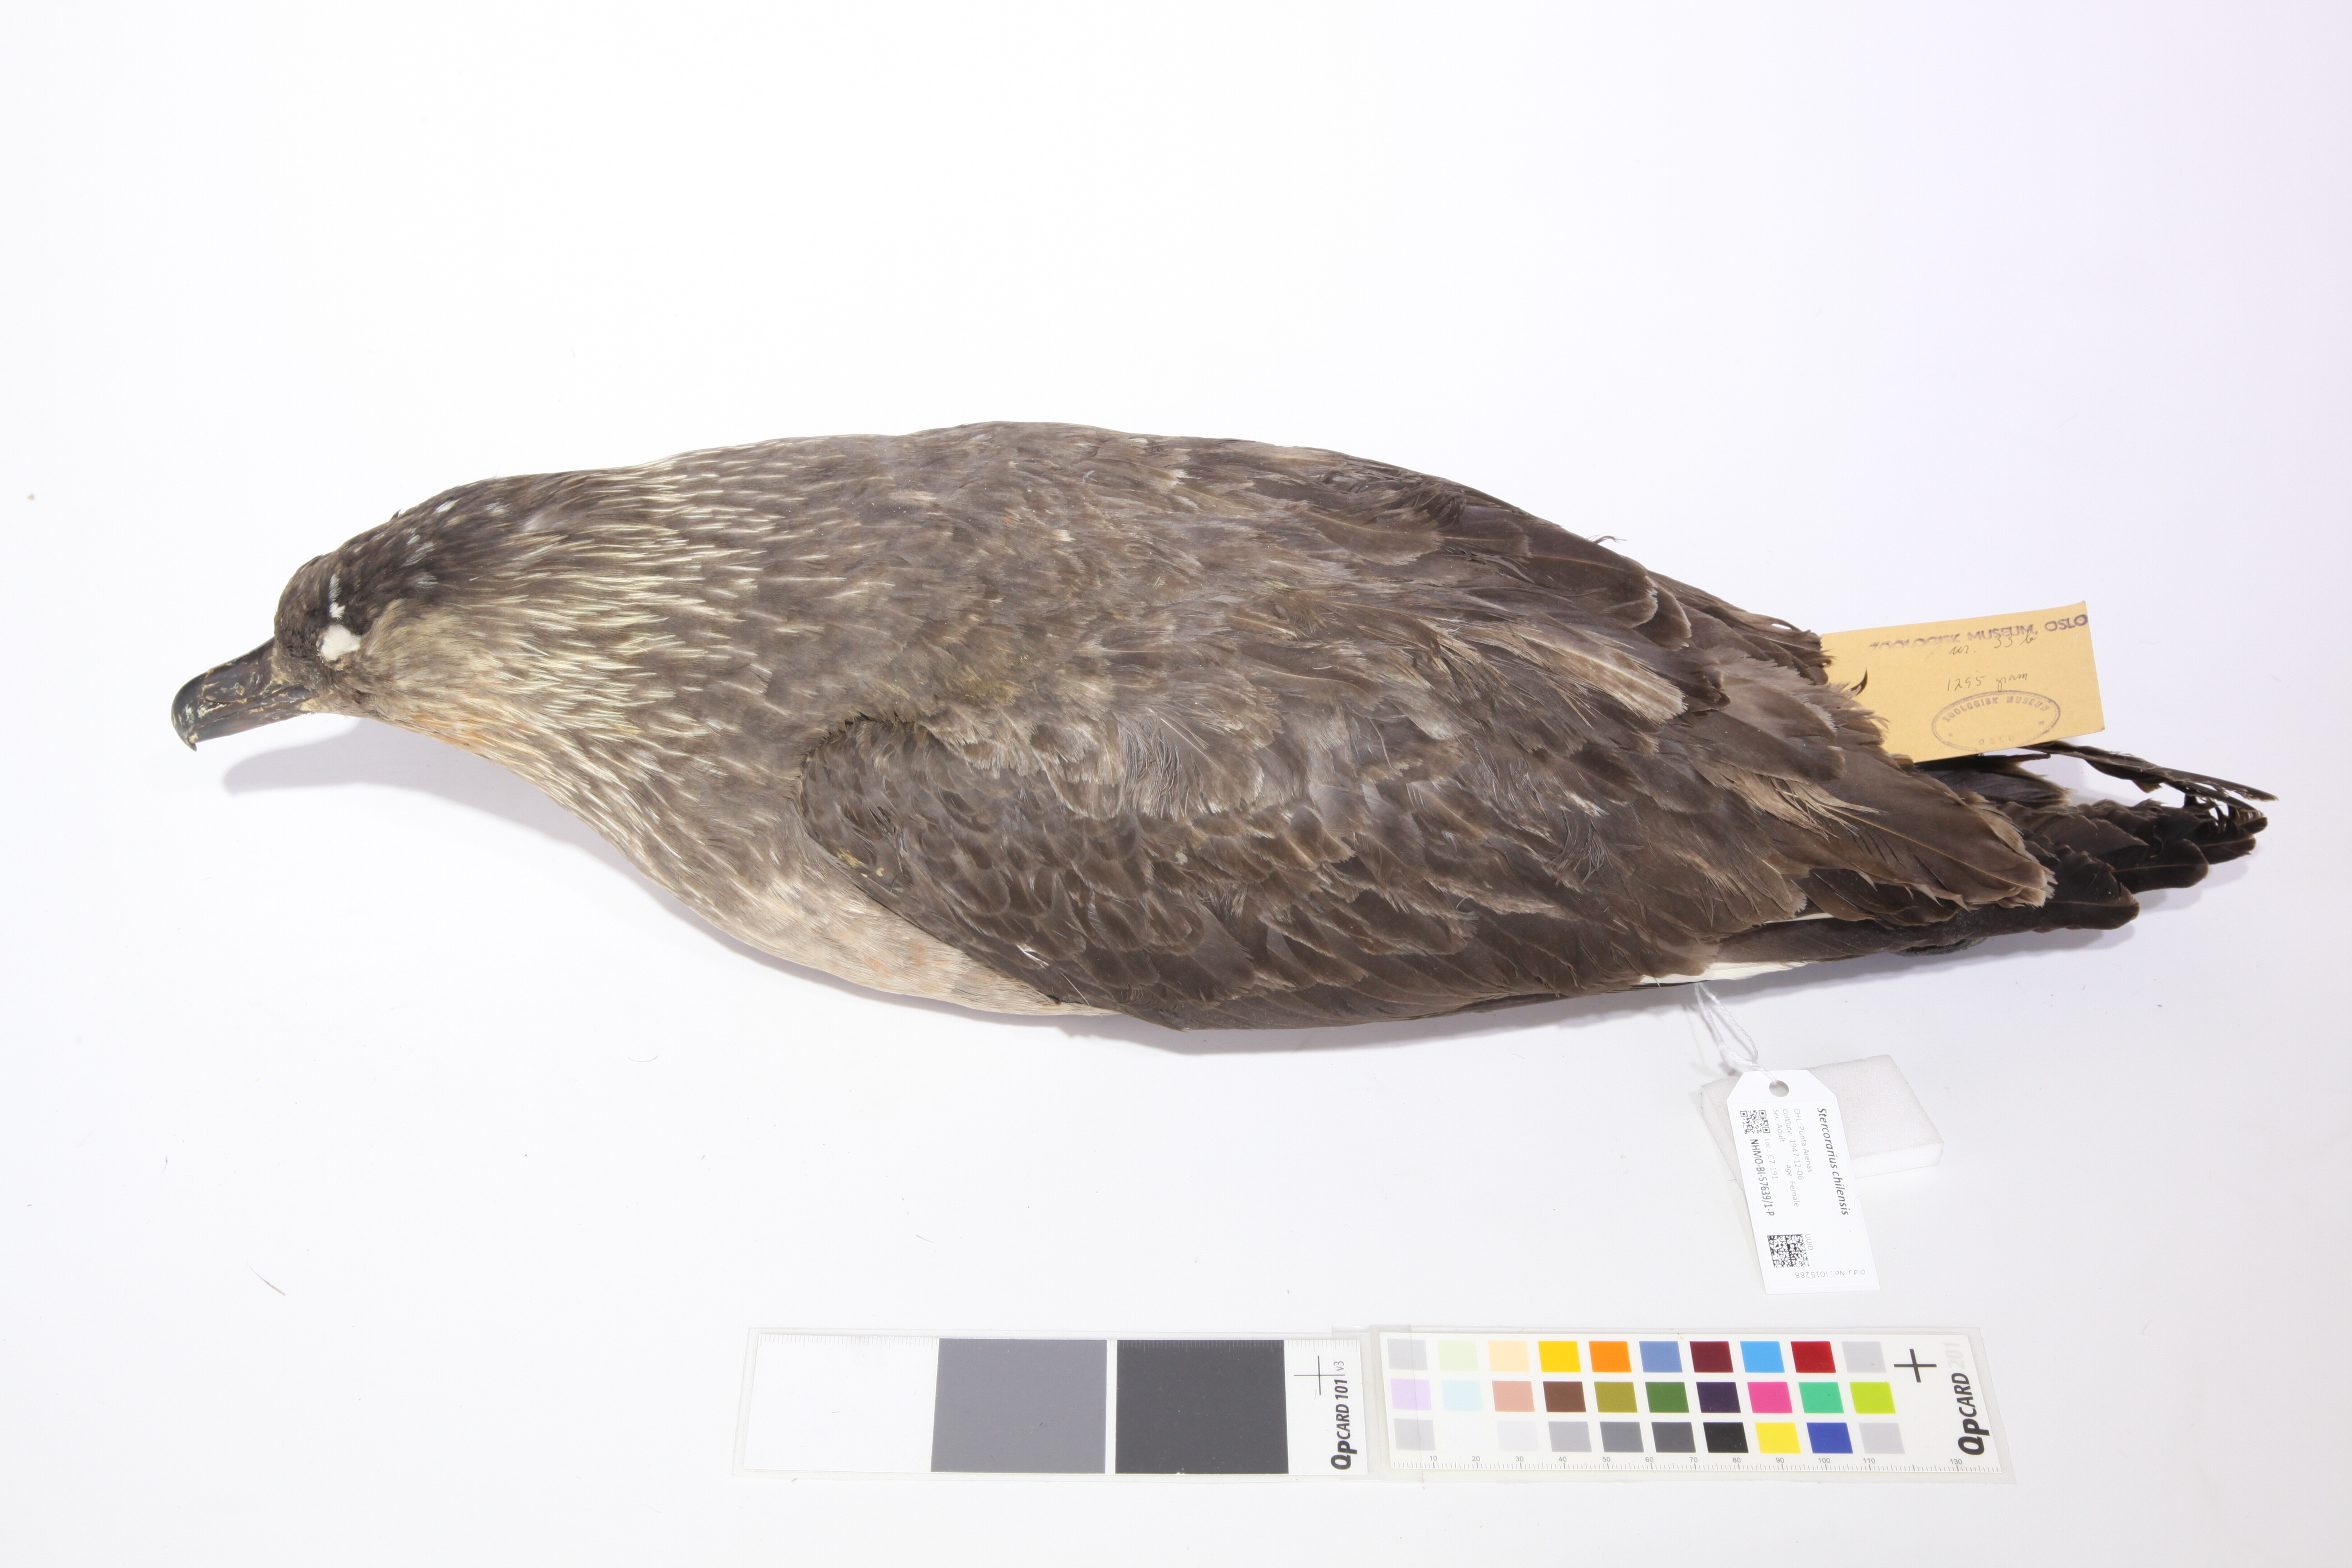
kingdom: Animalia
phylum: Chordata
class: Aves
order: Charadriiformes
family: Stercorariidae
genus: Stercorarius
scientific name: Stercorarius chilensis
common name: Chilean skua
